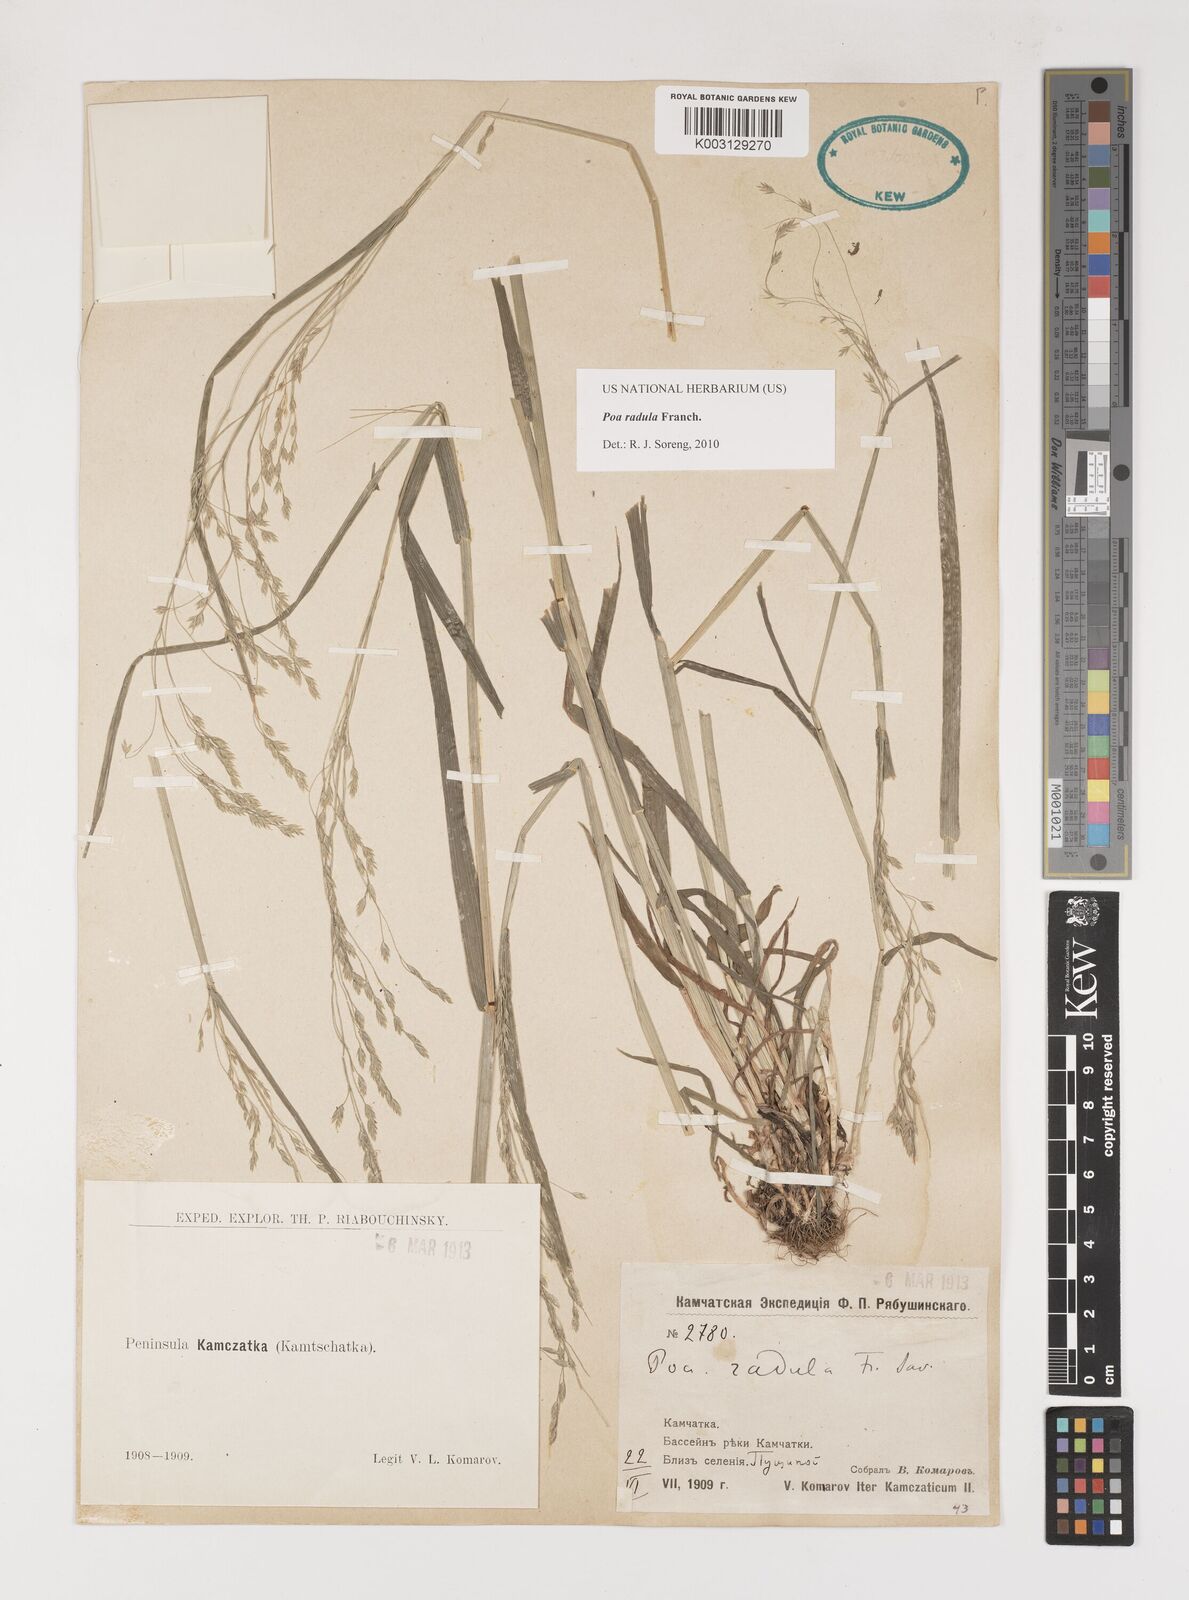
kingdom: Plantae
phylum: Tracheophyta
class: Liliopsida
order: Poales
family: Poaceae
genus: Poa
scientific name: Poa radula
